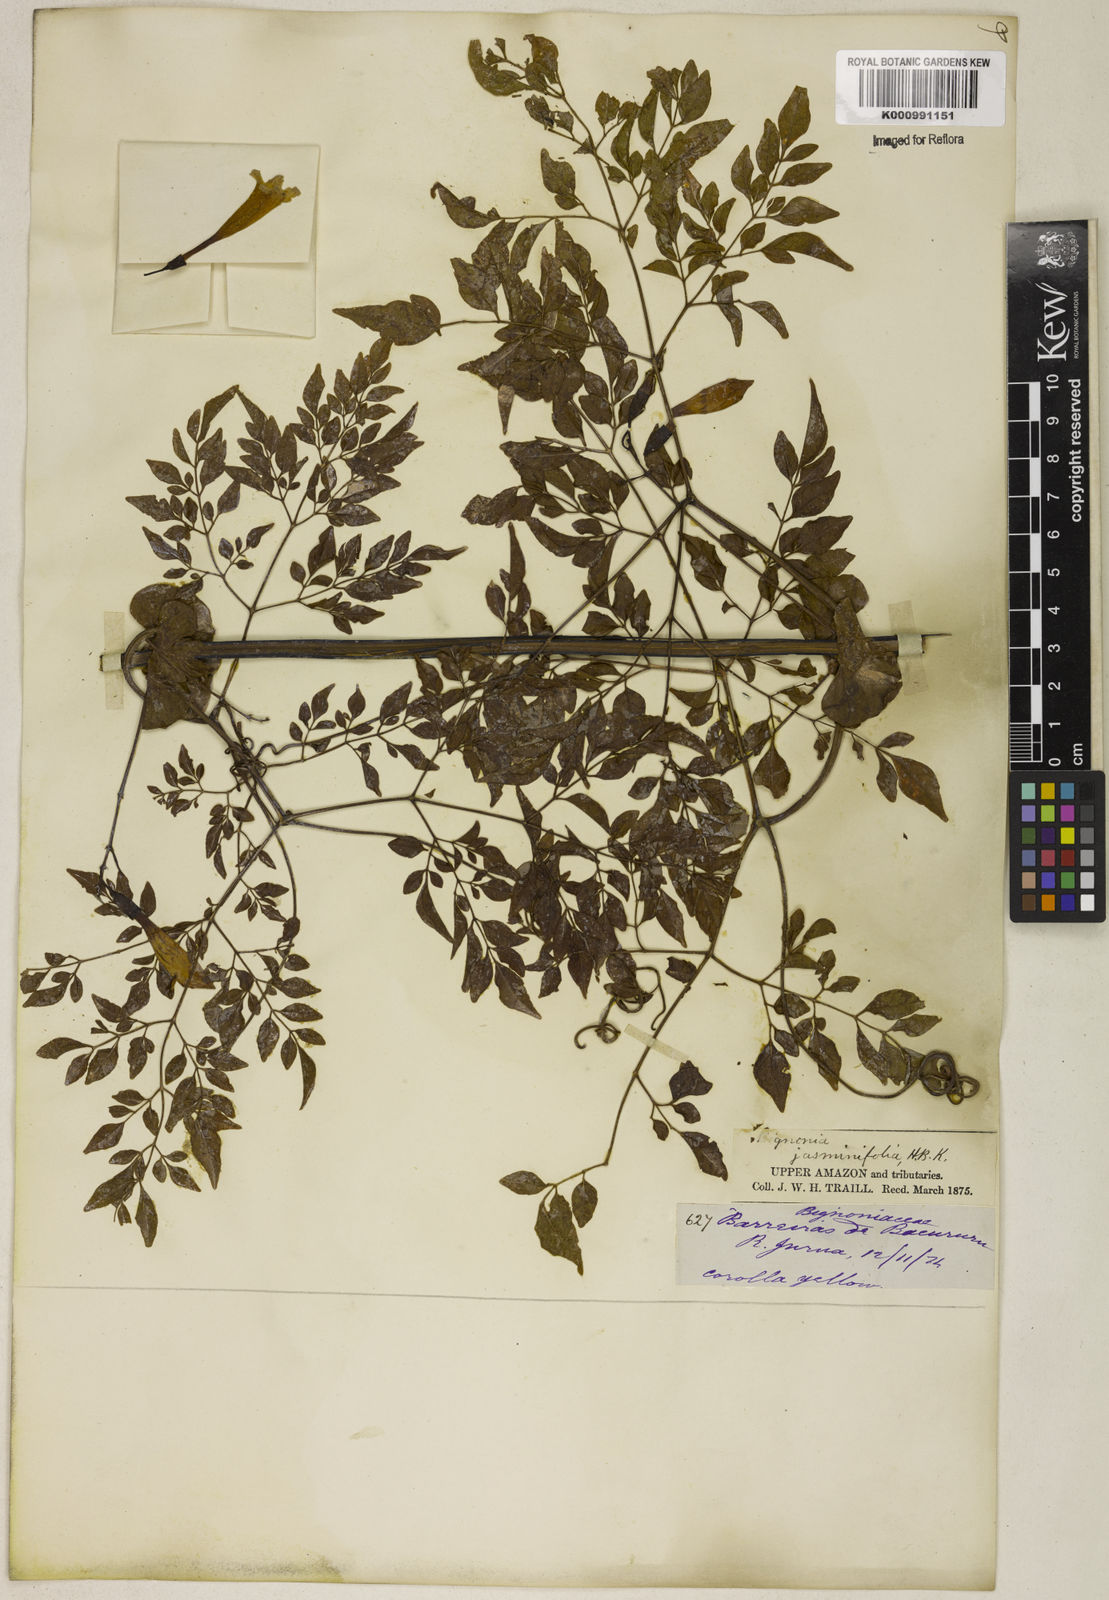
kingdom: Plantae
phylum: Tracheophyta
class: Magnoliopsida
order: Lamiales
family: Bignoniaceae
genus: Pleonotoma
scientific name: Pleonotoma jasminifolia
